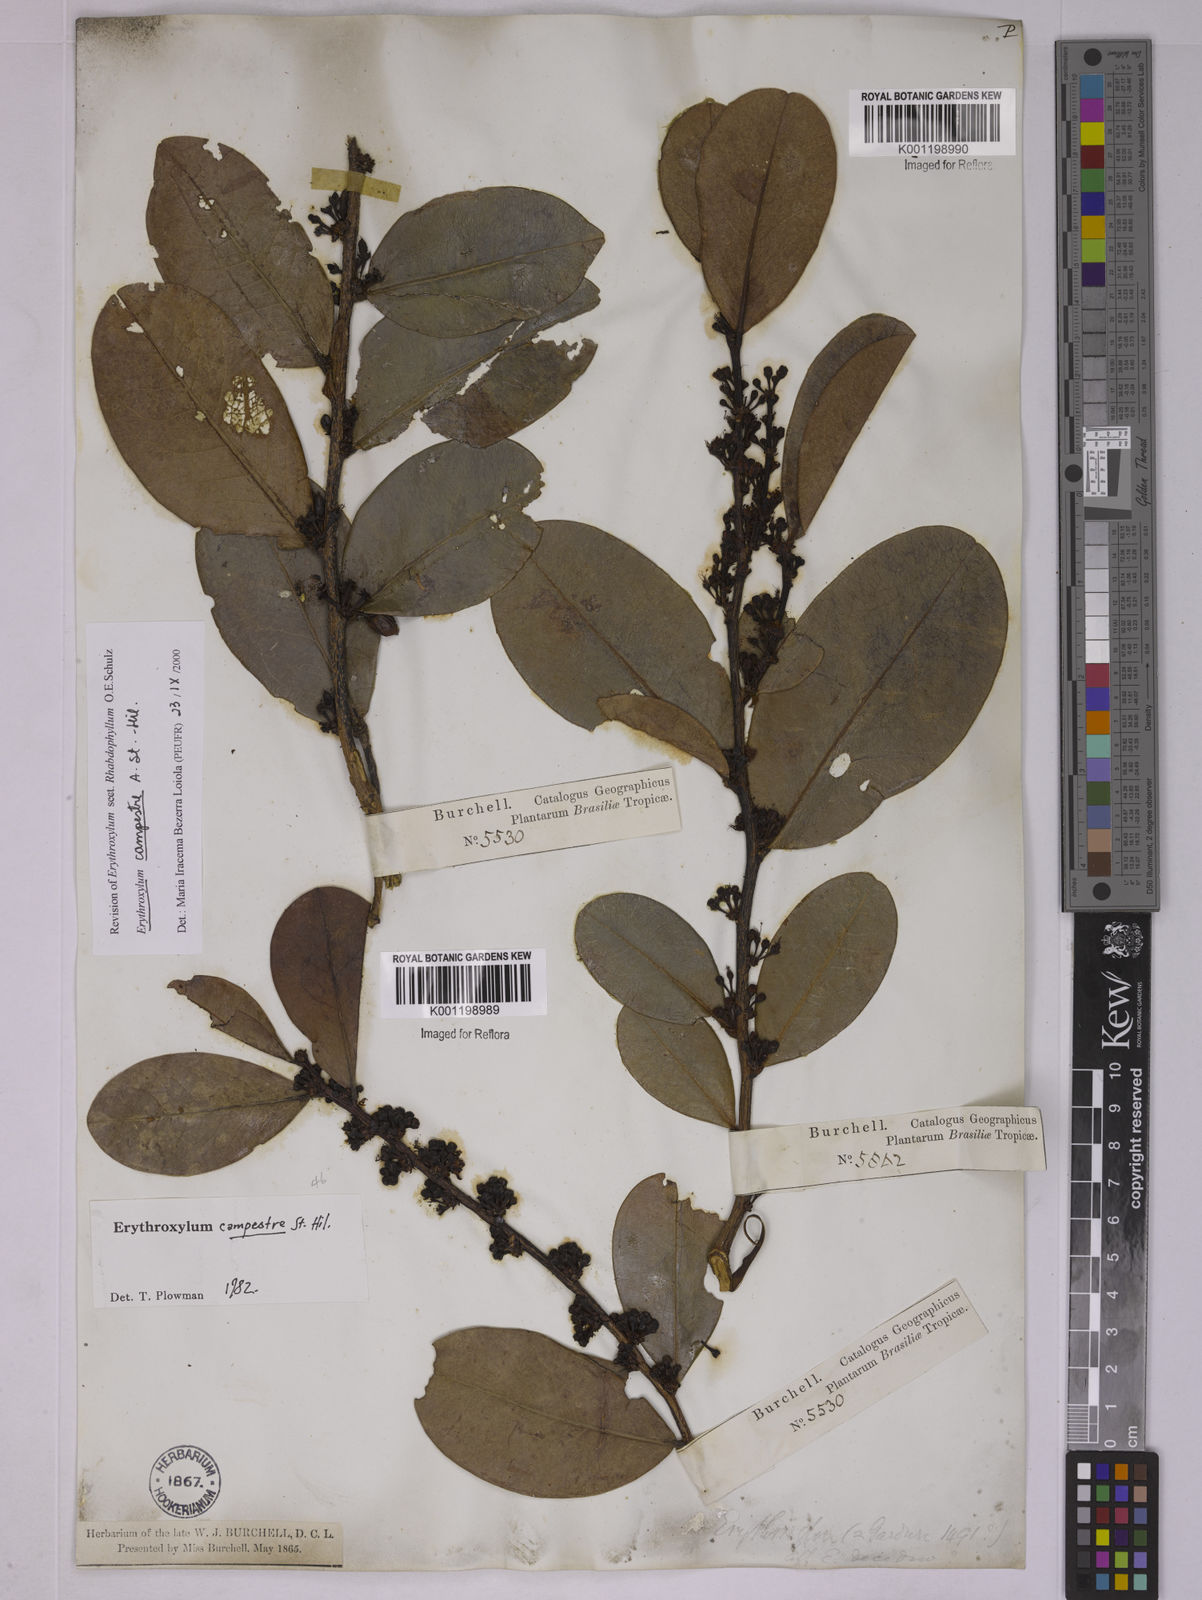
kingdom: Plantae
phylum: Tracheophyta
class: Magnoliopsida
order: Malpighiales
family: Erythroxylaceae
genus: Erythroxylum
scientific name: Erythroxylum campestre
